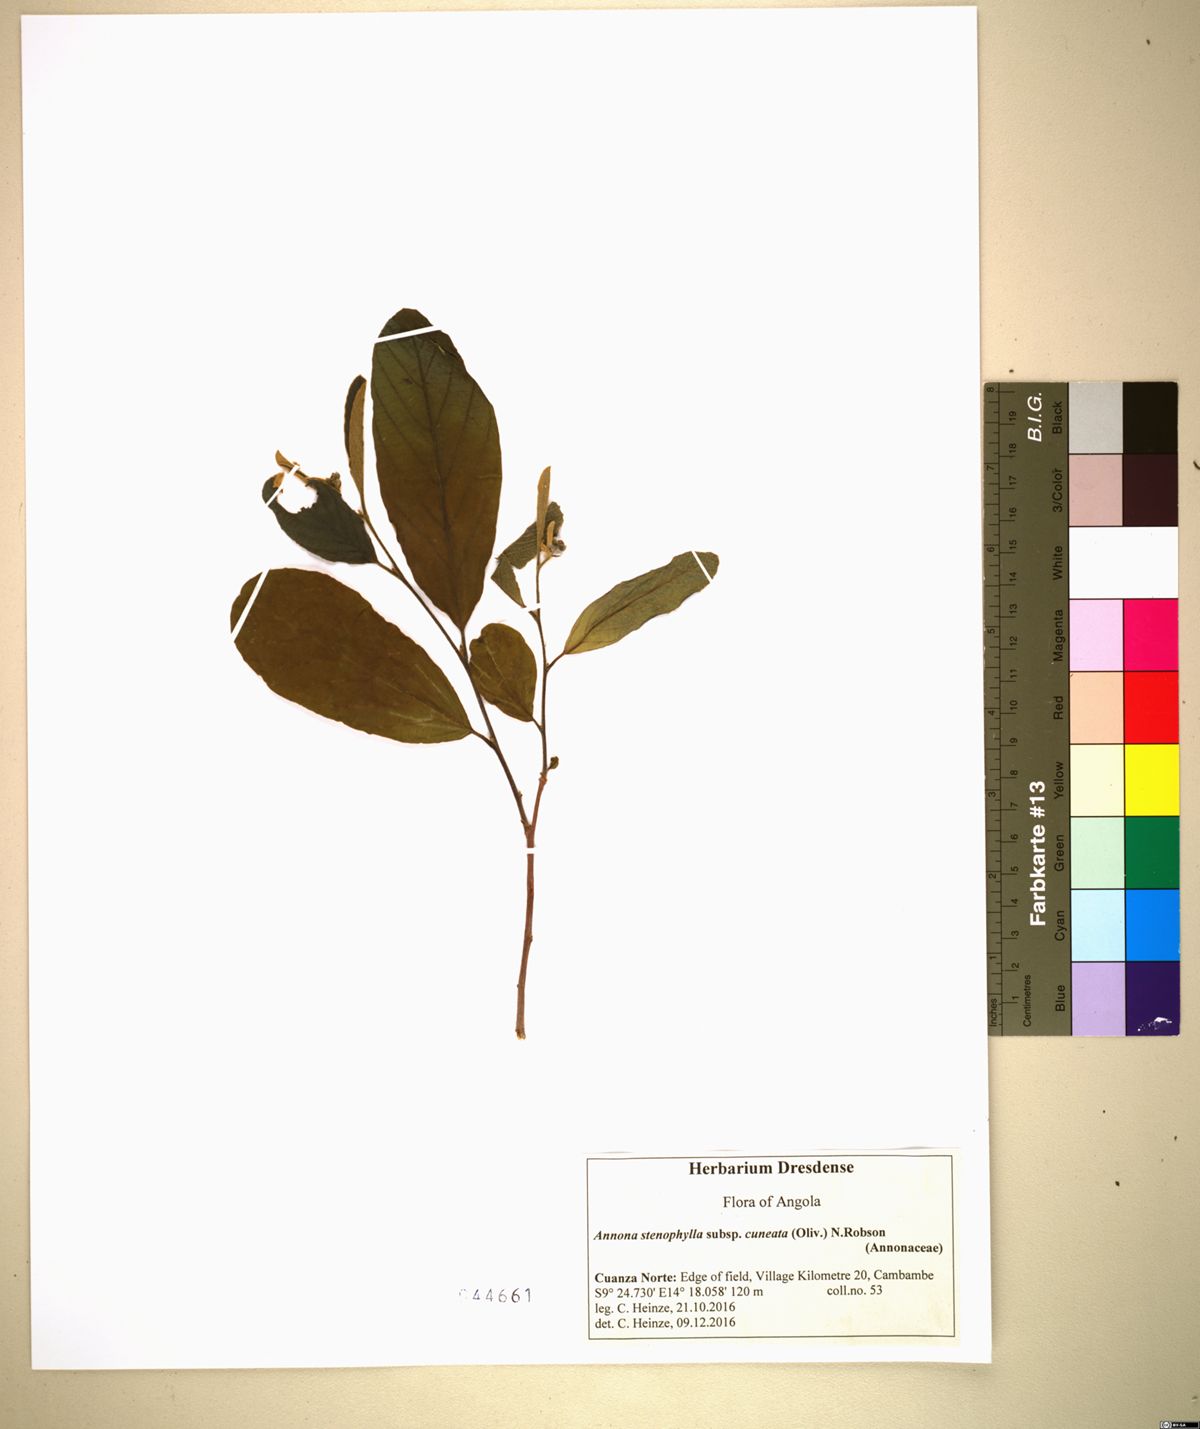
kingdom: Plantae
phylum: Tracheophyta
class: Magnoliopsida
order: Magnoliales
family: Annonaceae
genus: Annona
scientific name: Annona stenophylla
